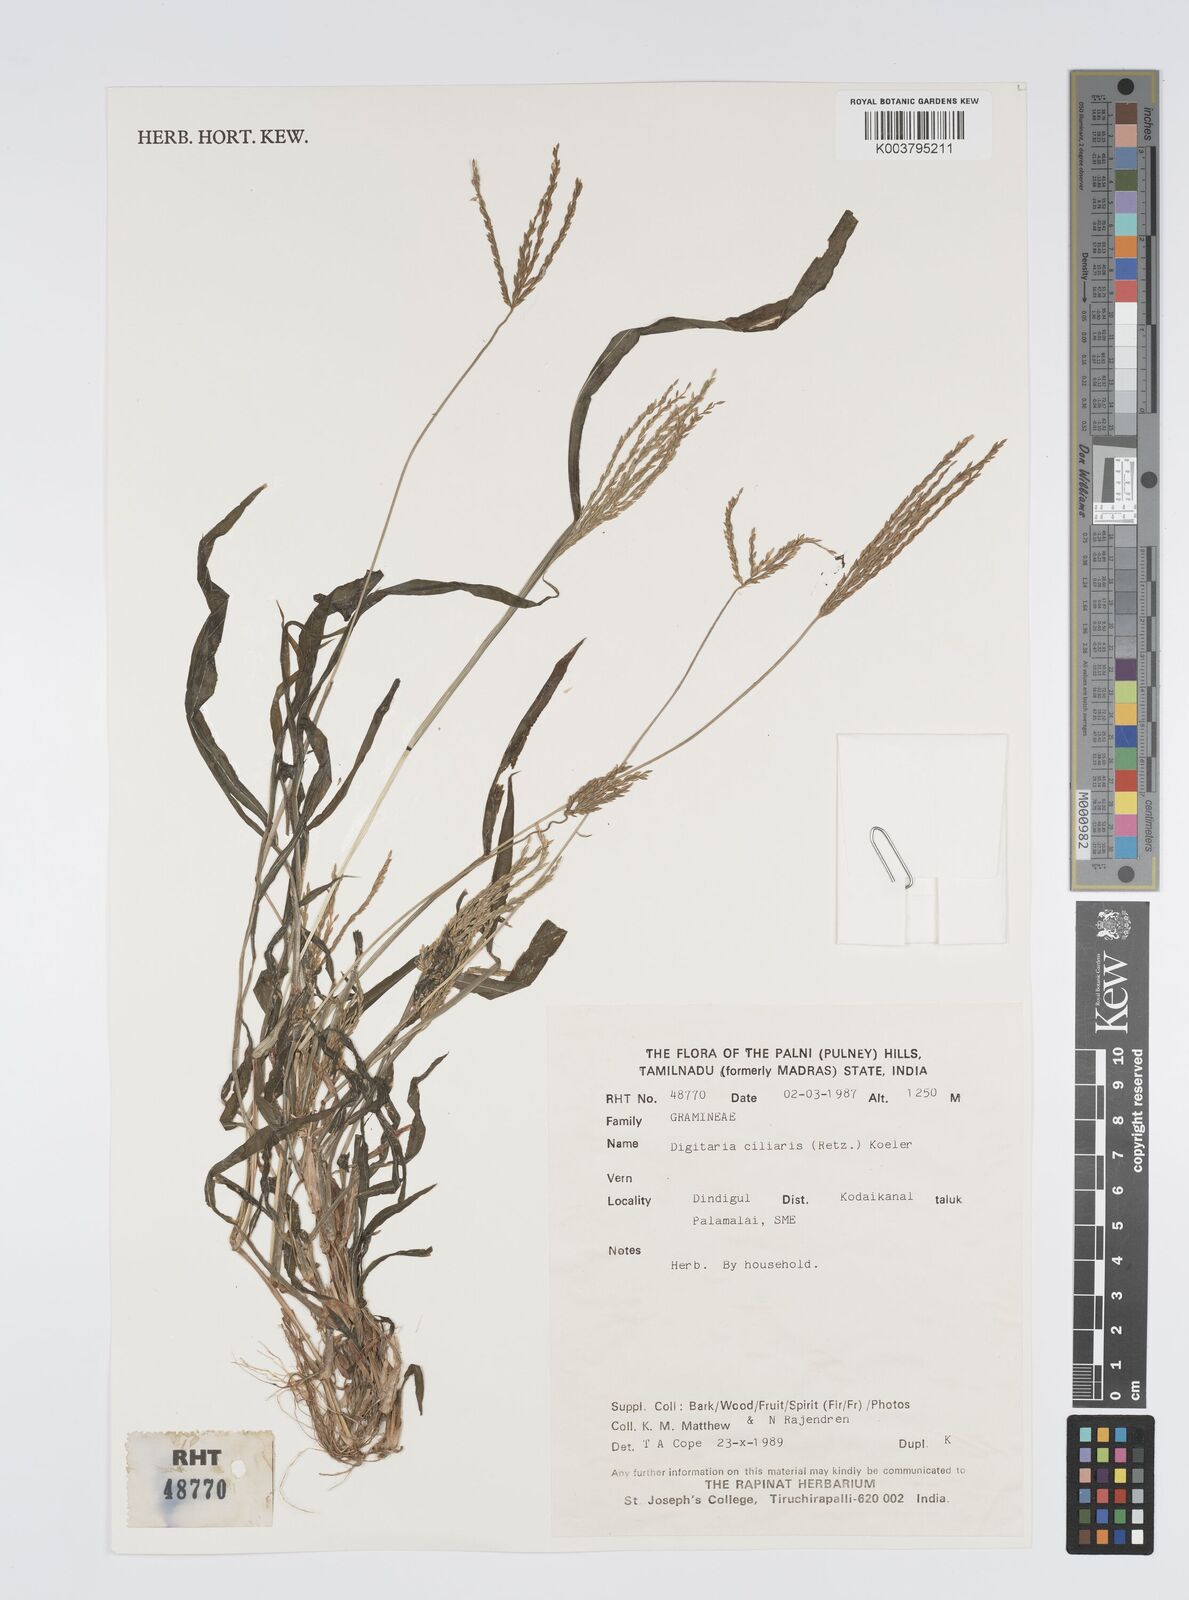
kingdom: Plantae
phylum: Tracheophyta
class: Liliopsida
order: Poales
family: Poaceae
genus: Digitaria
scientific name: Digitaria ciliaris
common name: Tropical finger-grass
